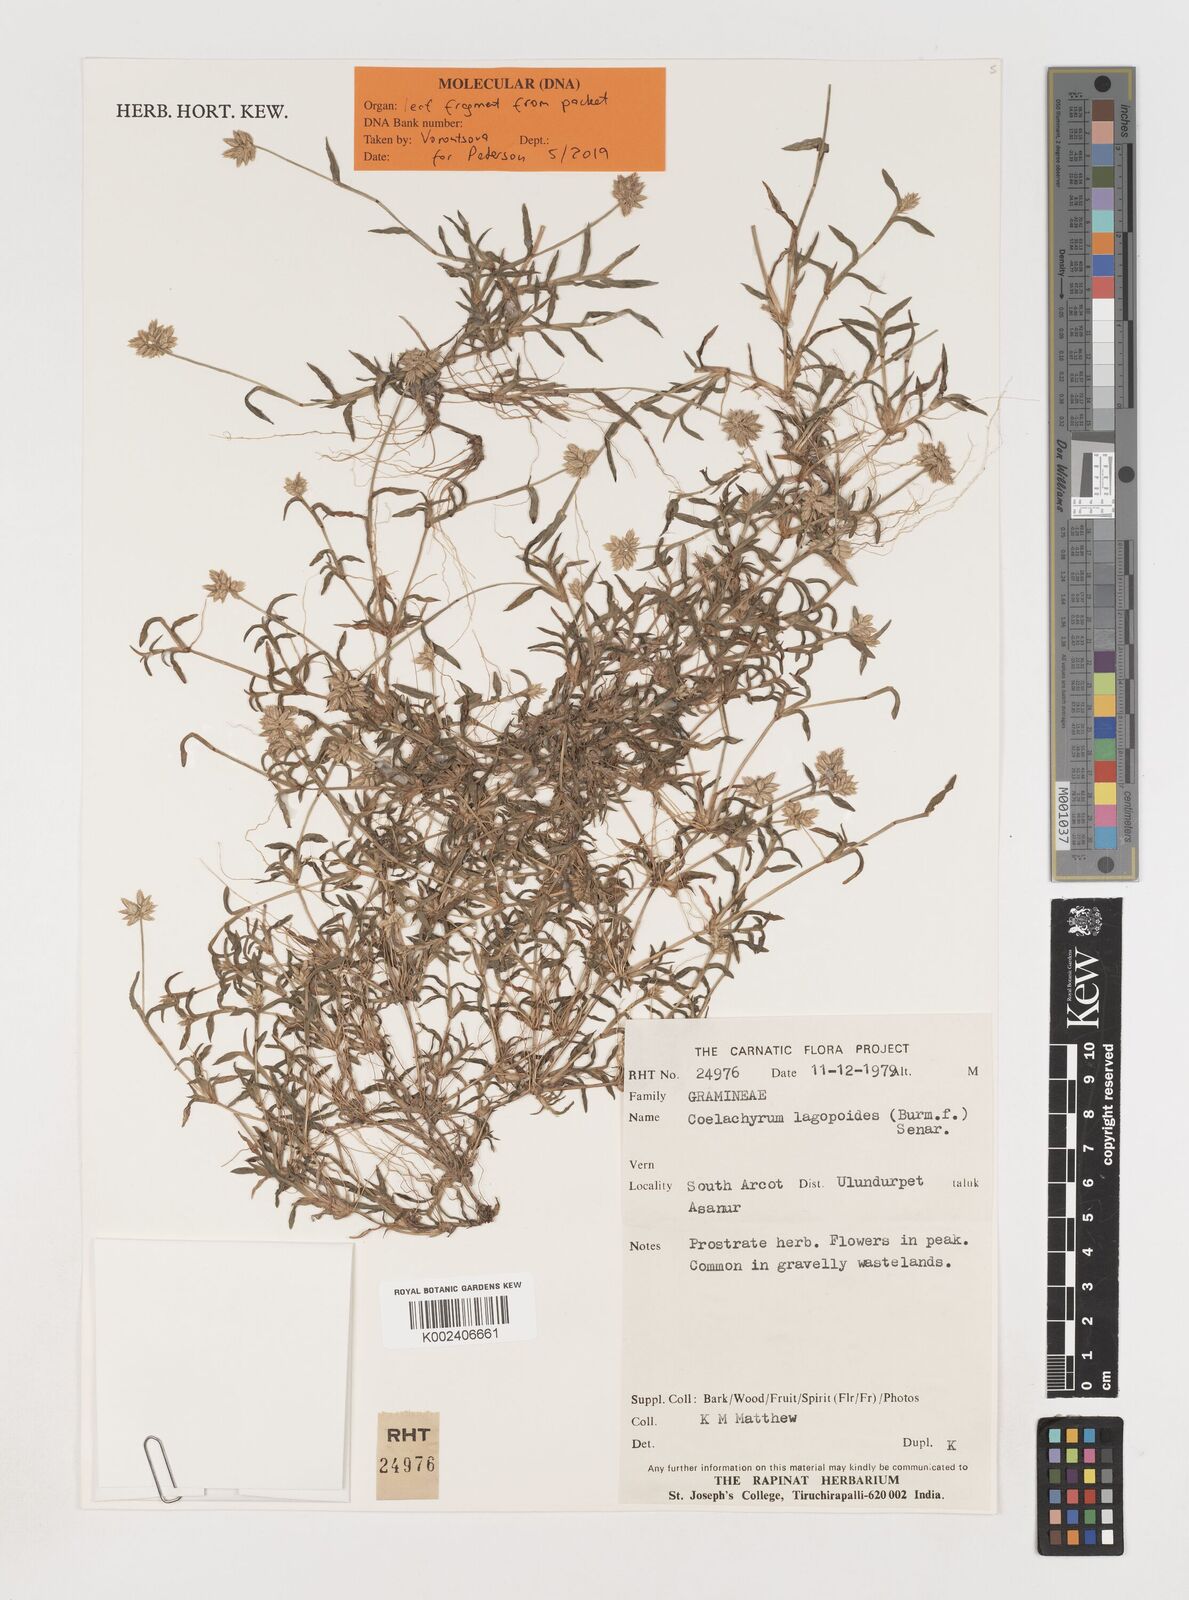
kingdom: Plantae
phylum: Tracheophyta
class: Liliopsida
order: Poales
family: Poaceae
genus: Coelachyrum
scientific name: Coelachyrum lagopoides
